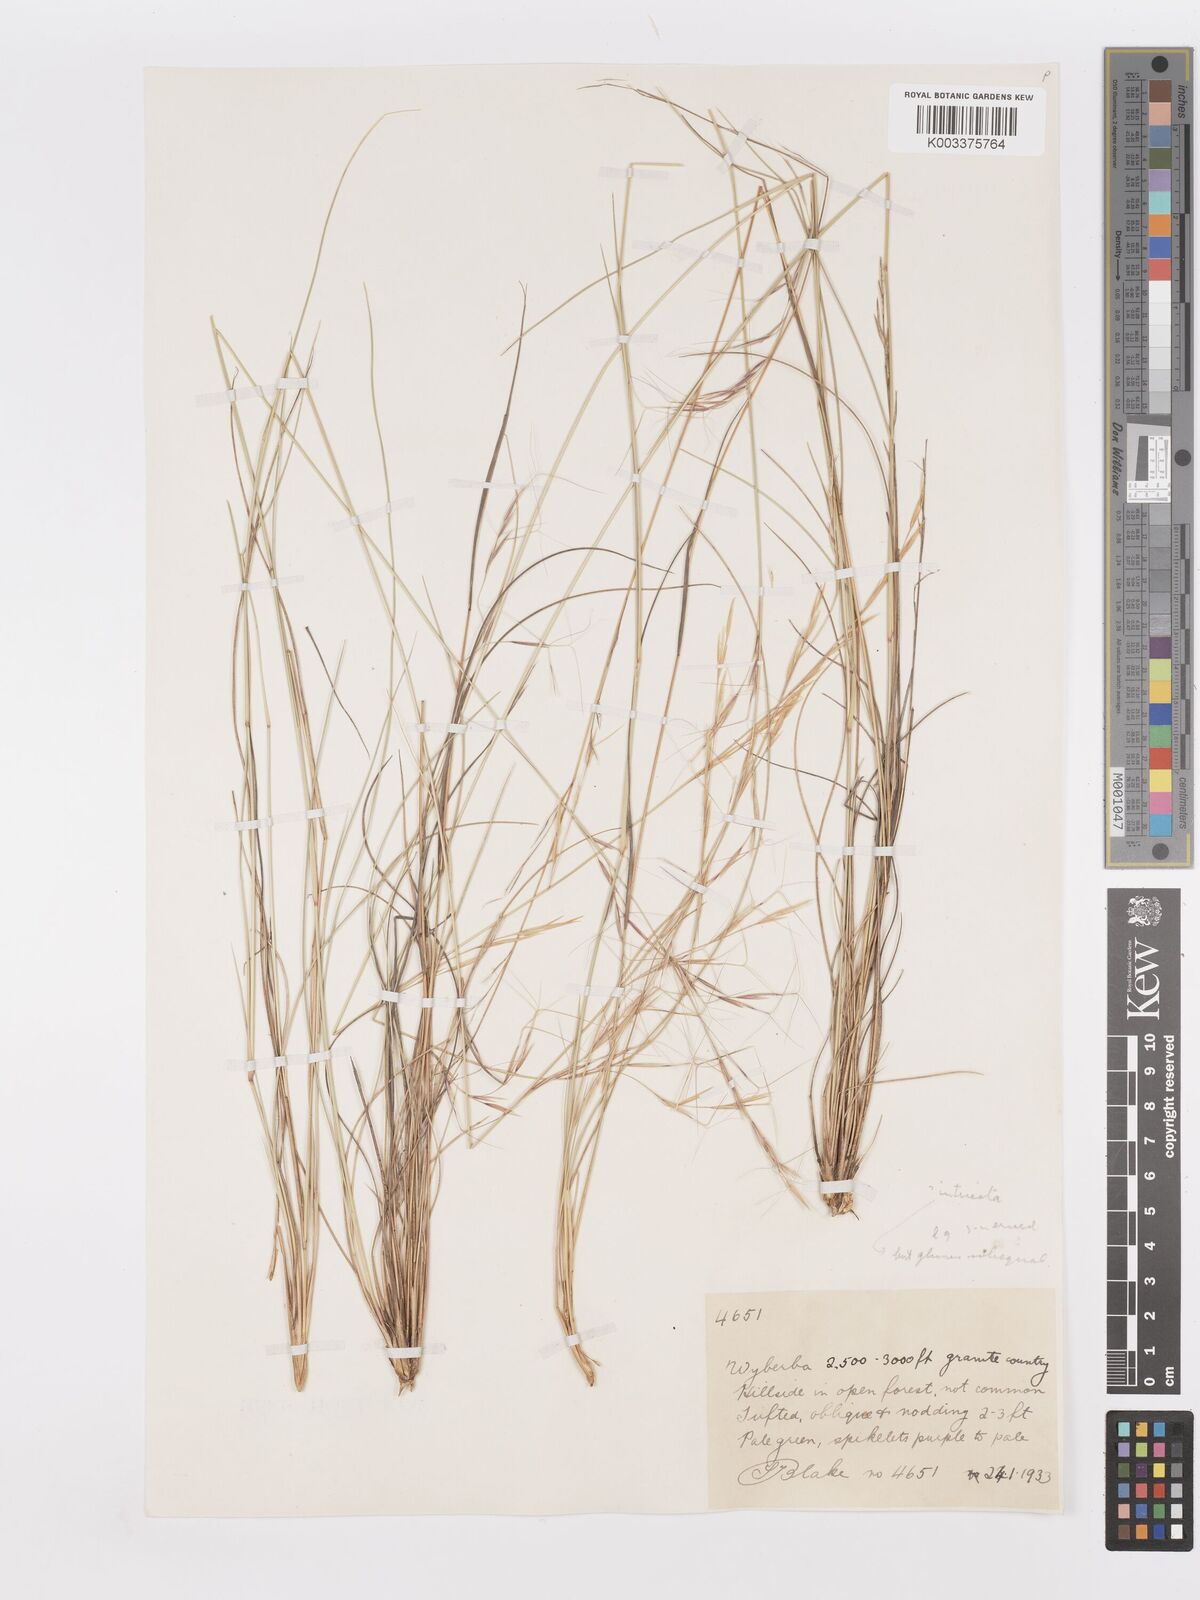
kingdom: Plantae
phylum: Tracheophyta
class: Liliopsida
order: Poales
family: Poaceae
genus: Aristida
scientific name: Aristida
